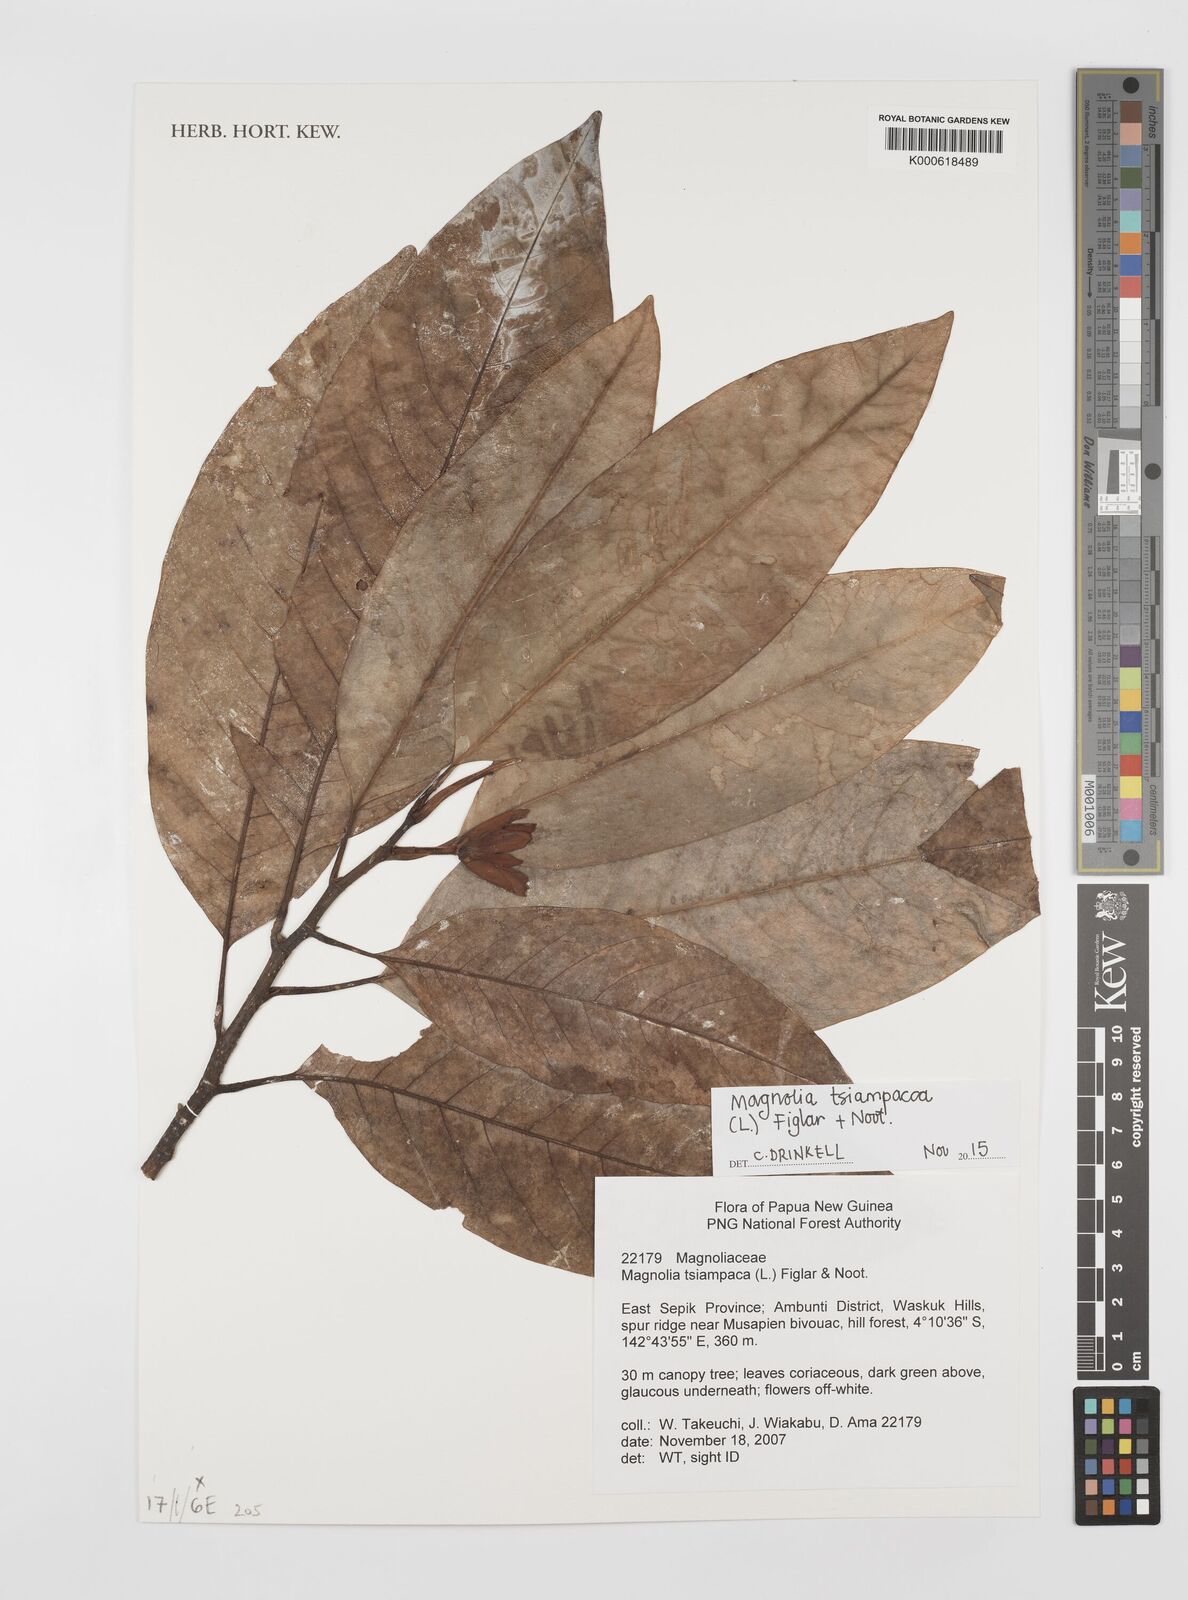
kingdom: Plantae
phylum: Tracheophyta
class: Magnoliopsida
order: Magnoliales
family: Magnoliaceae
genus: Magnolia
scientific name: Magnolia tsiampacca
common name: Wau-beech
